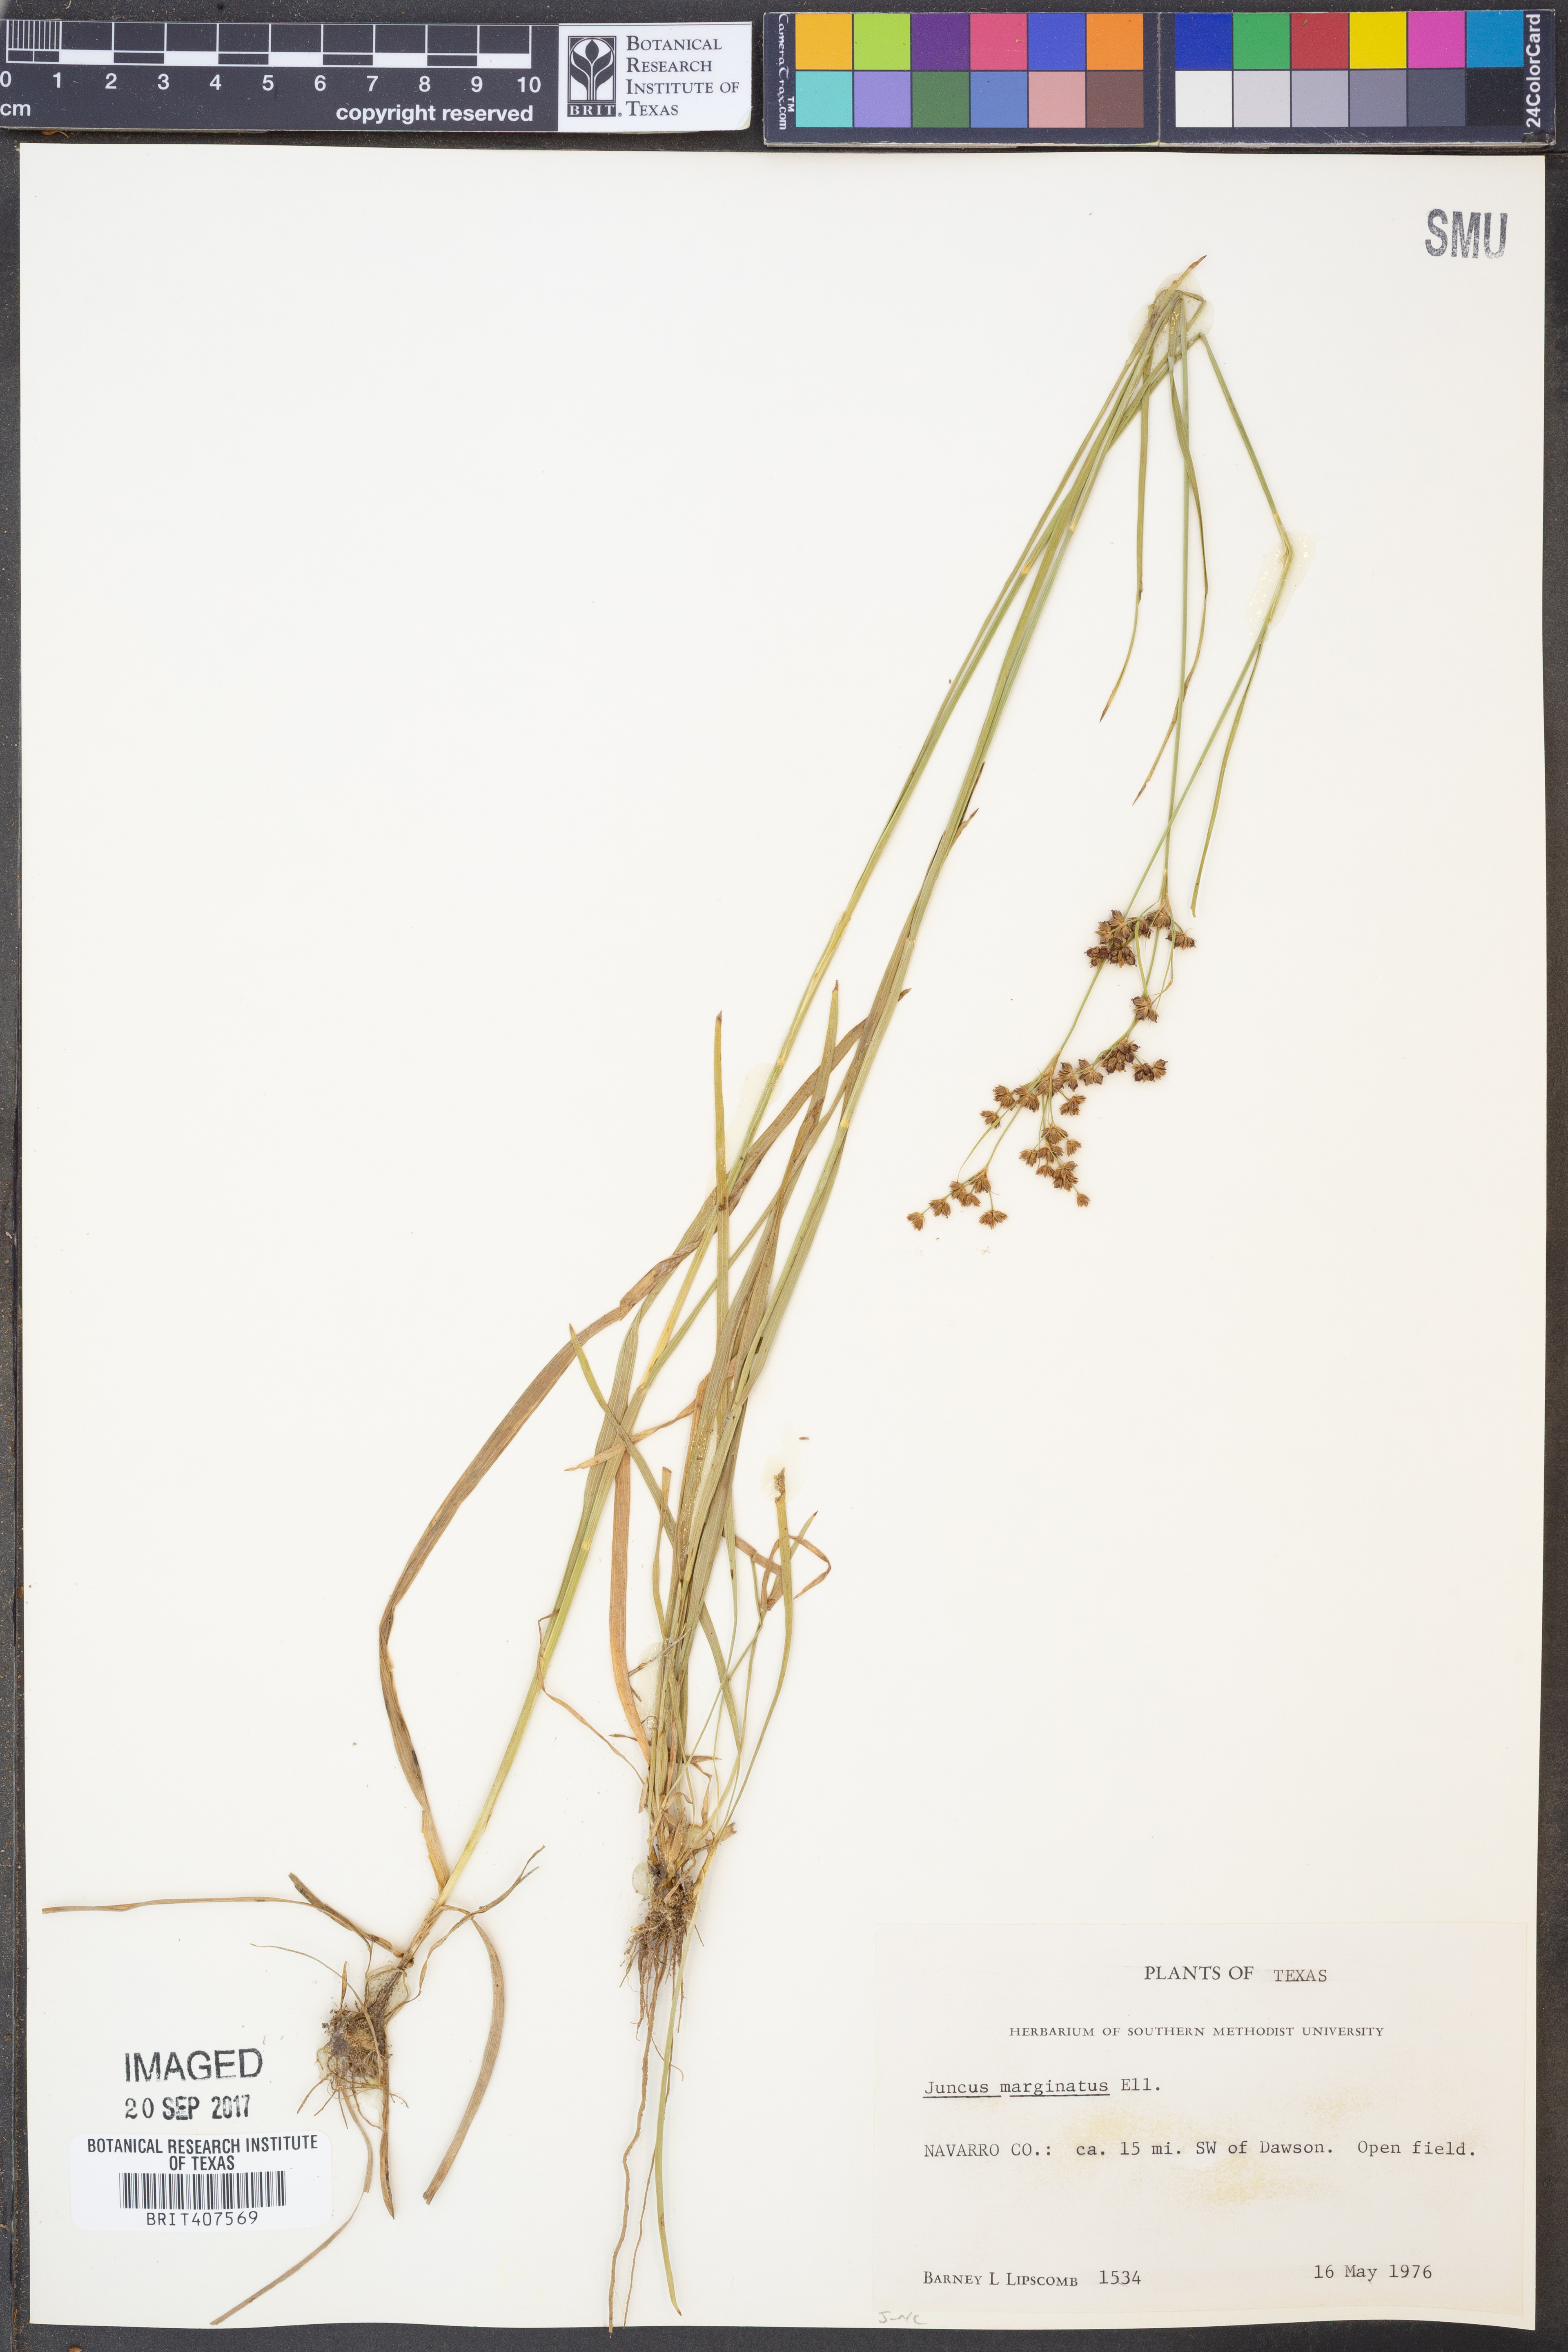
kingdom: Plantae
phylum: Tracheophyta
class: Liliopsida
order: Poales
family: Juncaceae
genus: Juncus
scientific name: Juncus marginatus
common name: Grass-leaf rush
